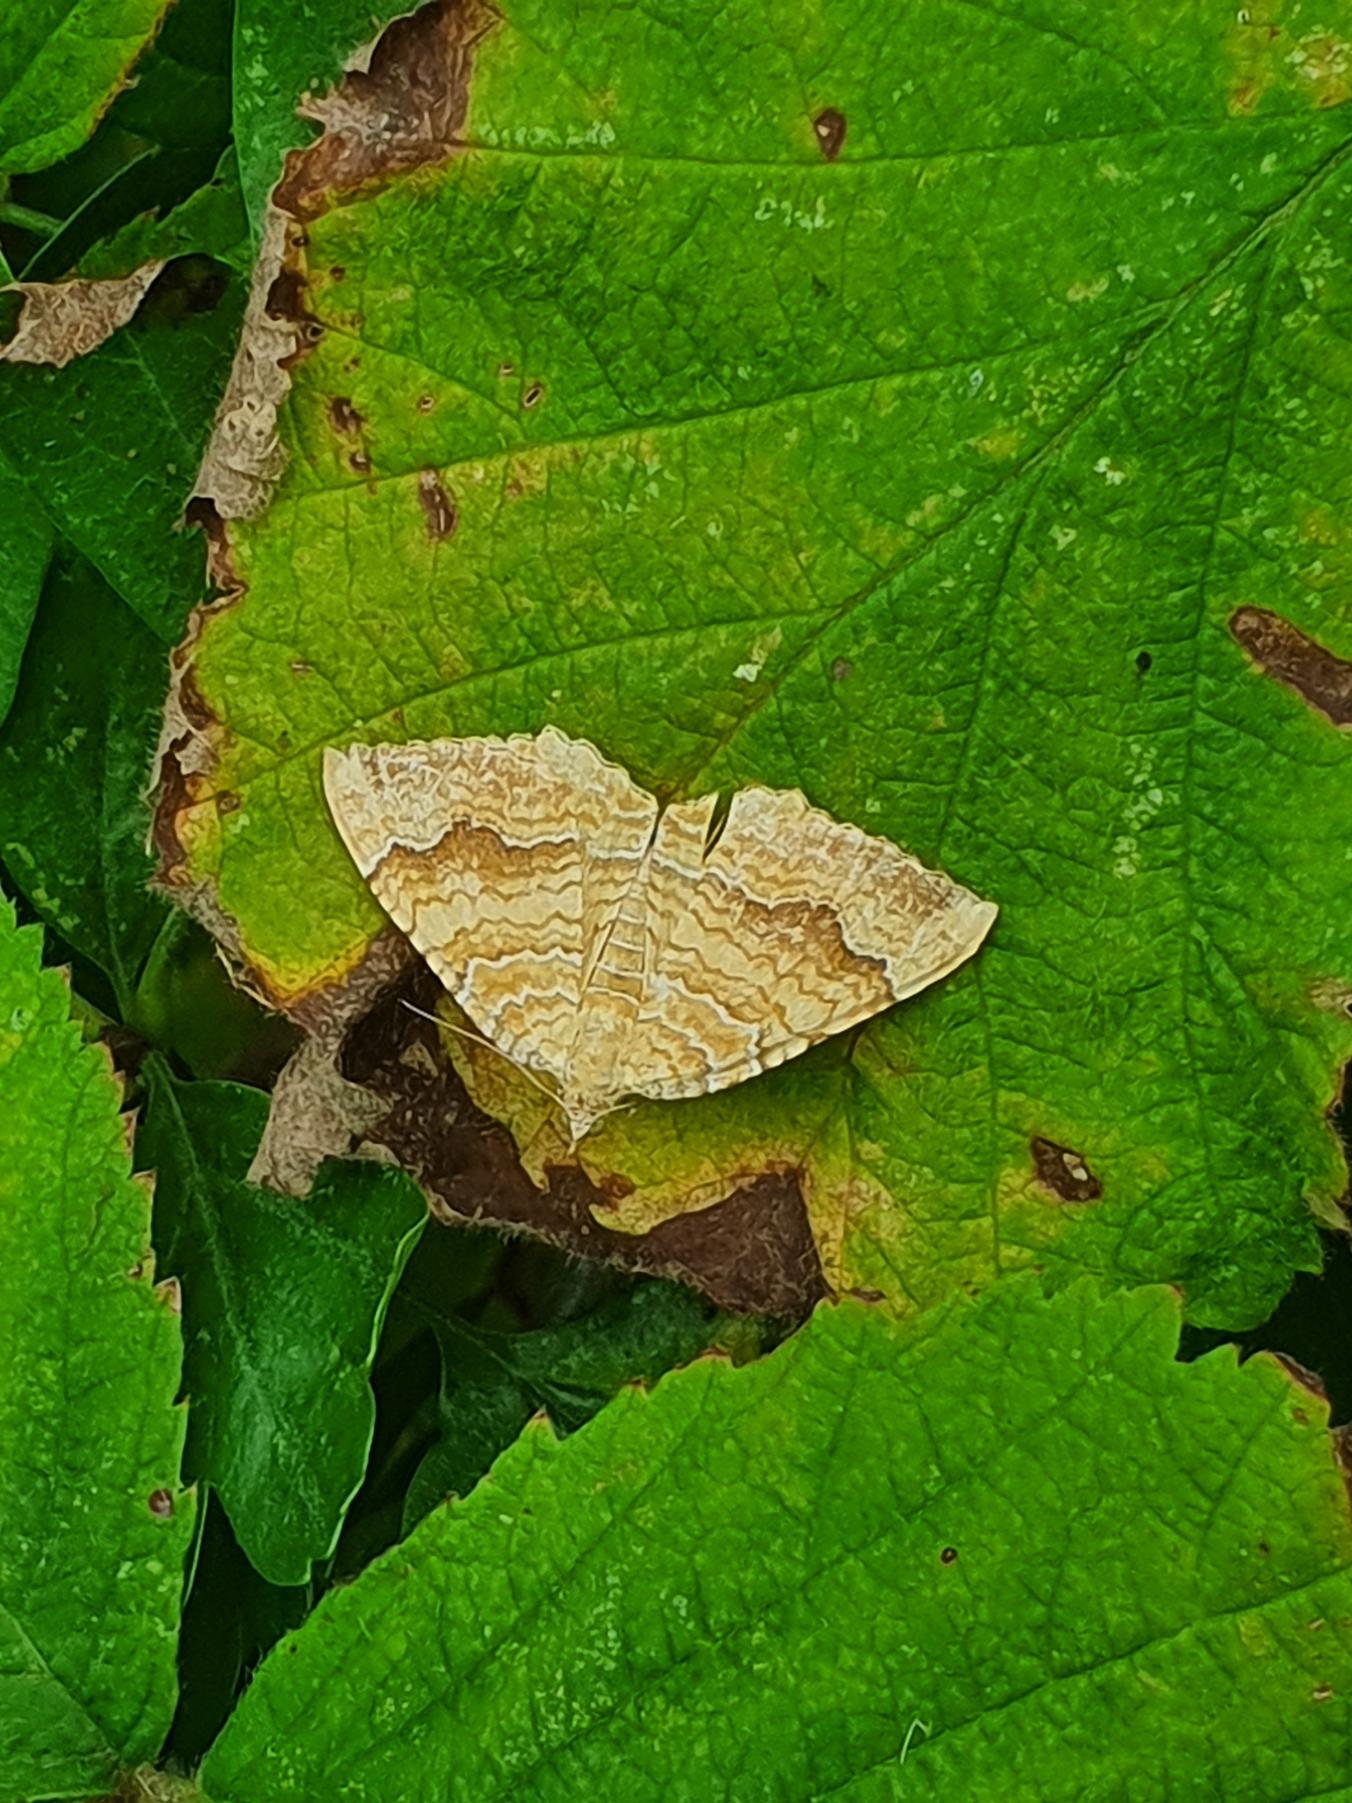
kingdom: Animalia
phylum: Arthropoda
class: Insecta
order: Lepidoptera
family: Geometridae
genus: Camptogramma
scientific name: Camptogramma bilineata
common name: Okkergul bladmåler
